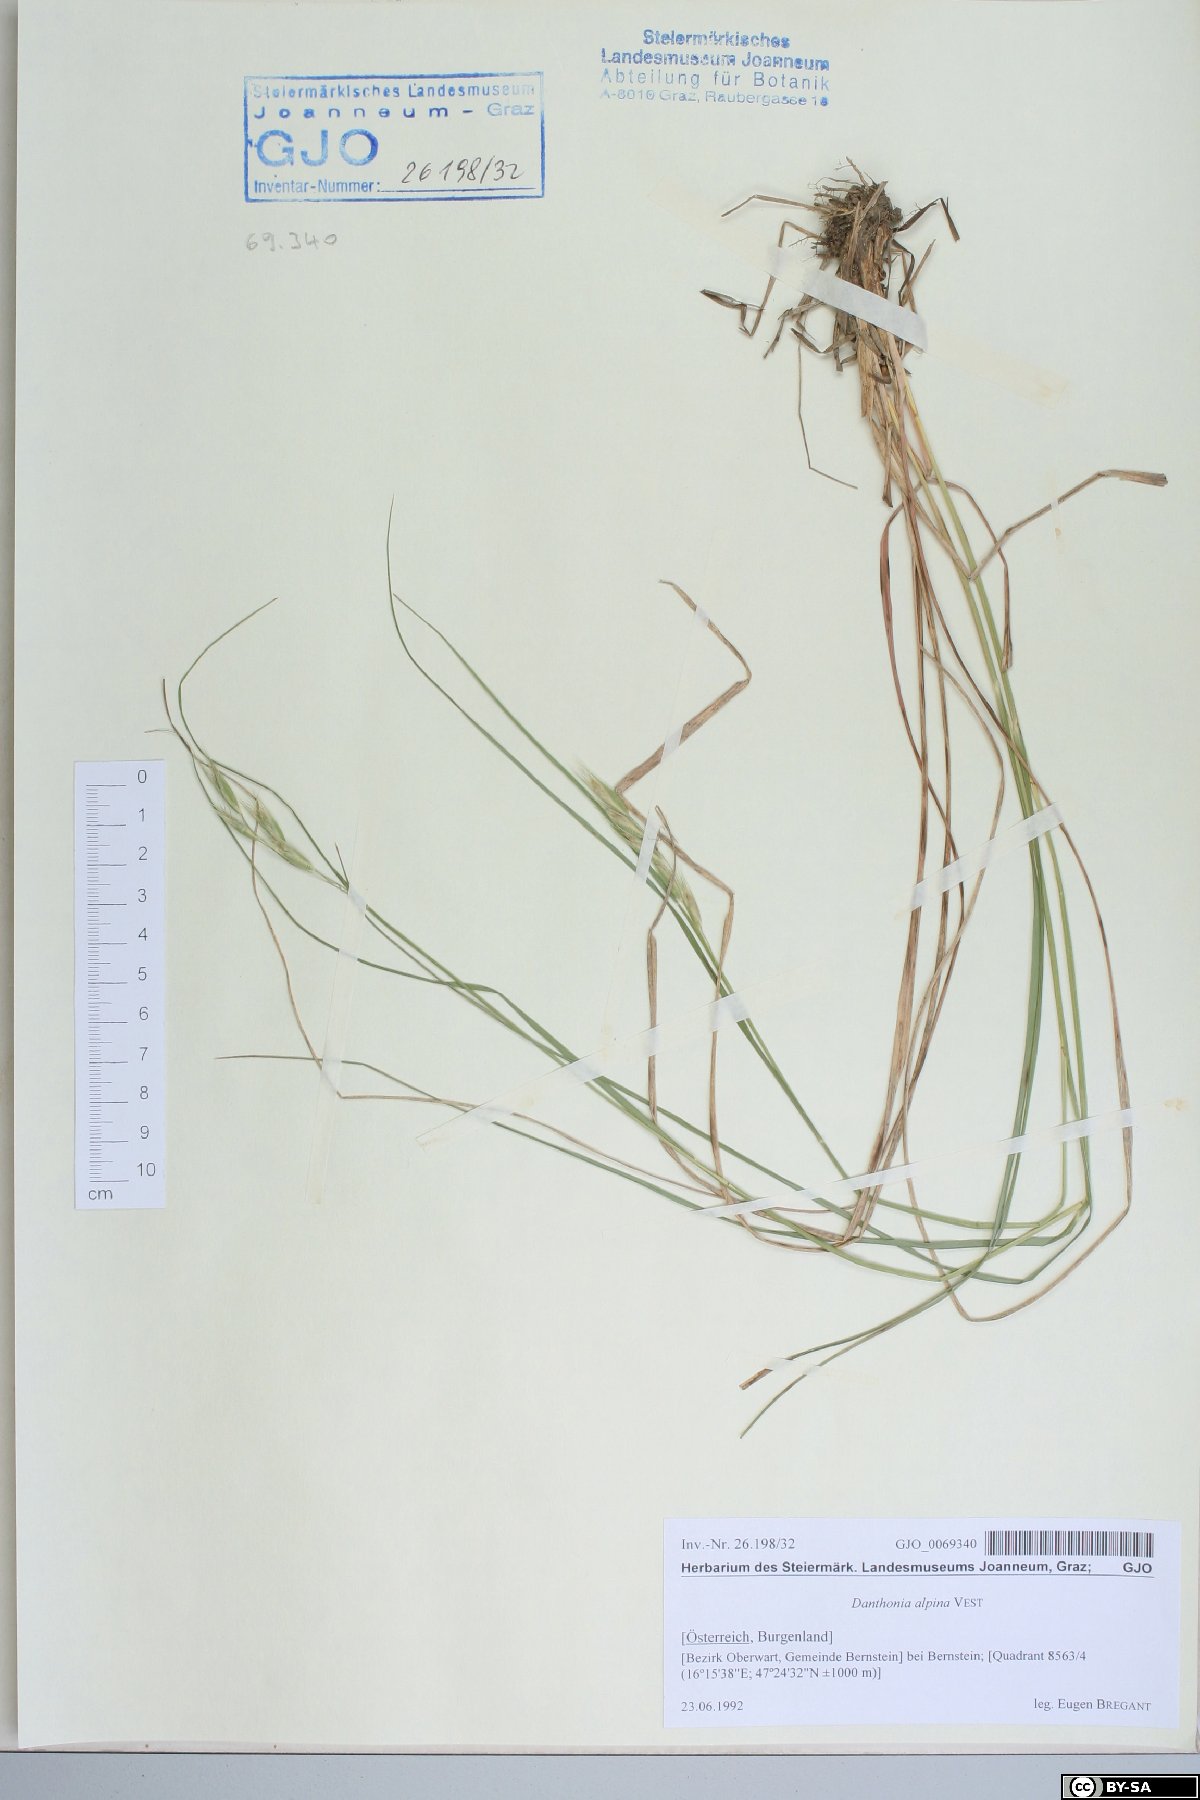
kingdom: Plantae
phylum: Tracheophyta
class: Liliopsida
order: Poales
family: Poaceae
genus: Danthonia
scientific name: Danthonia alpina
